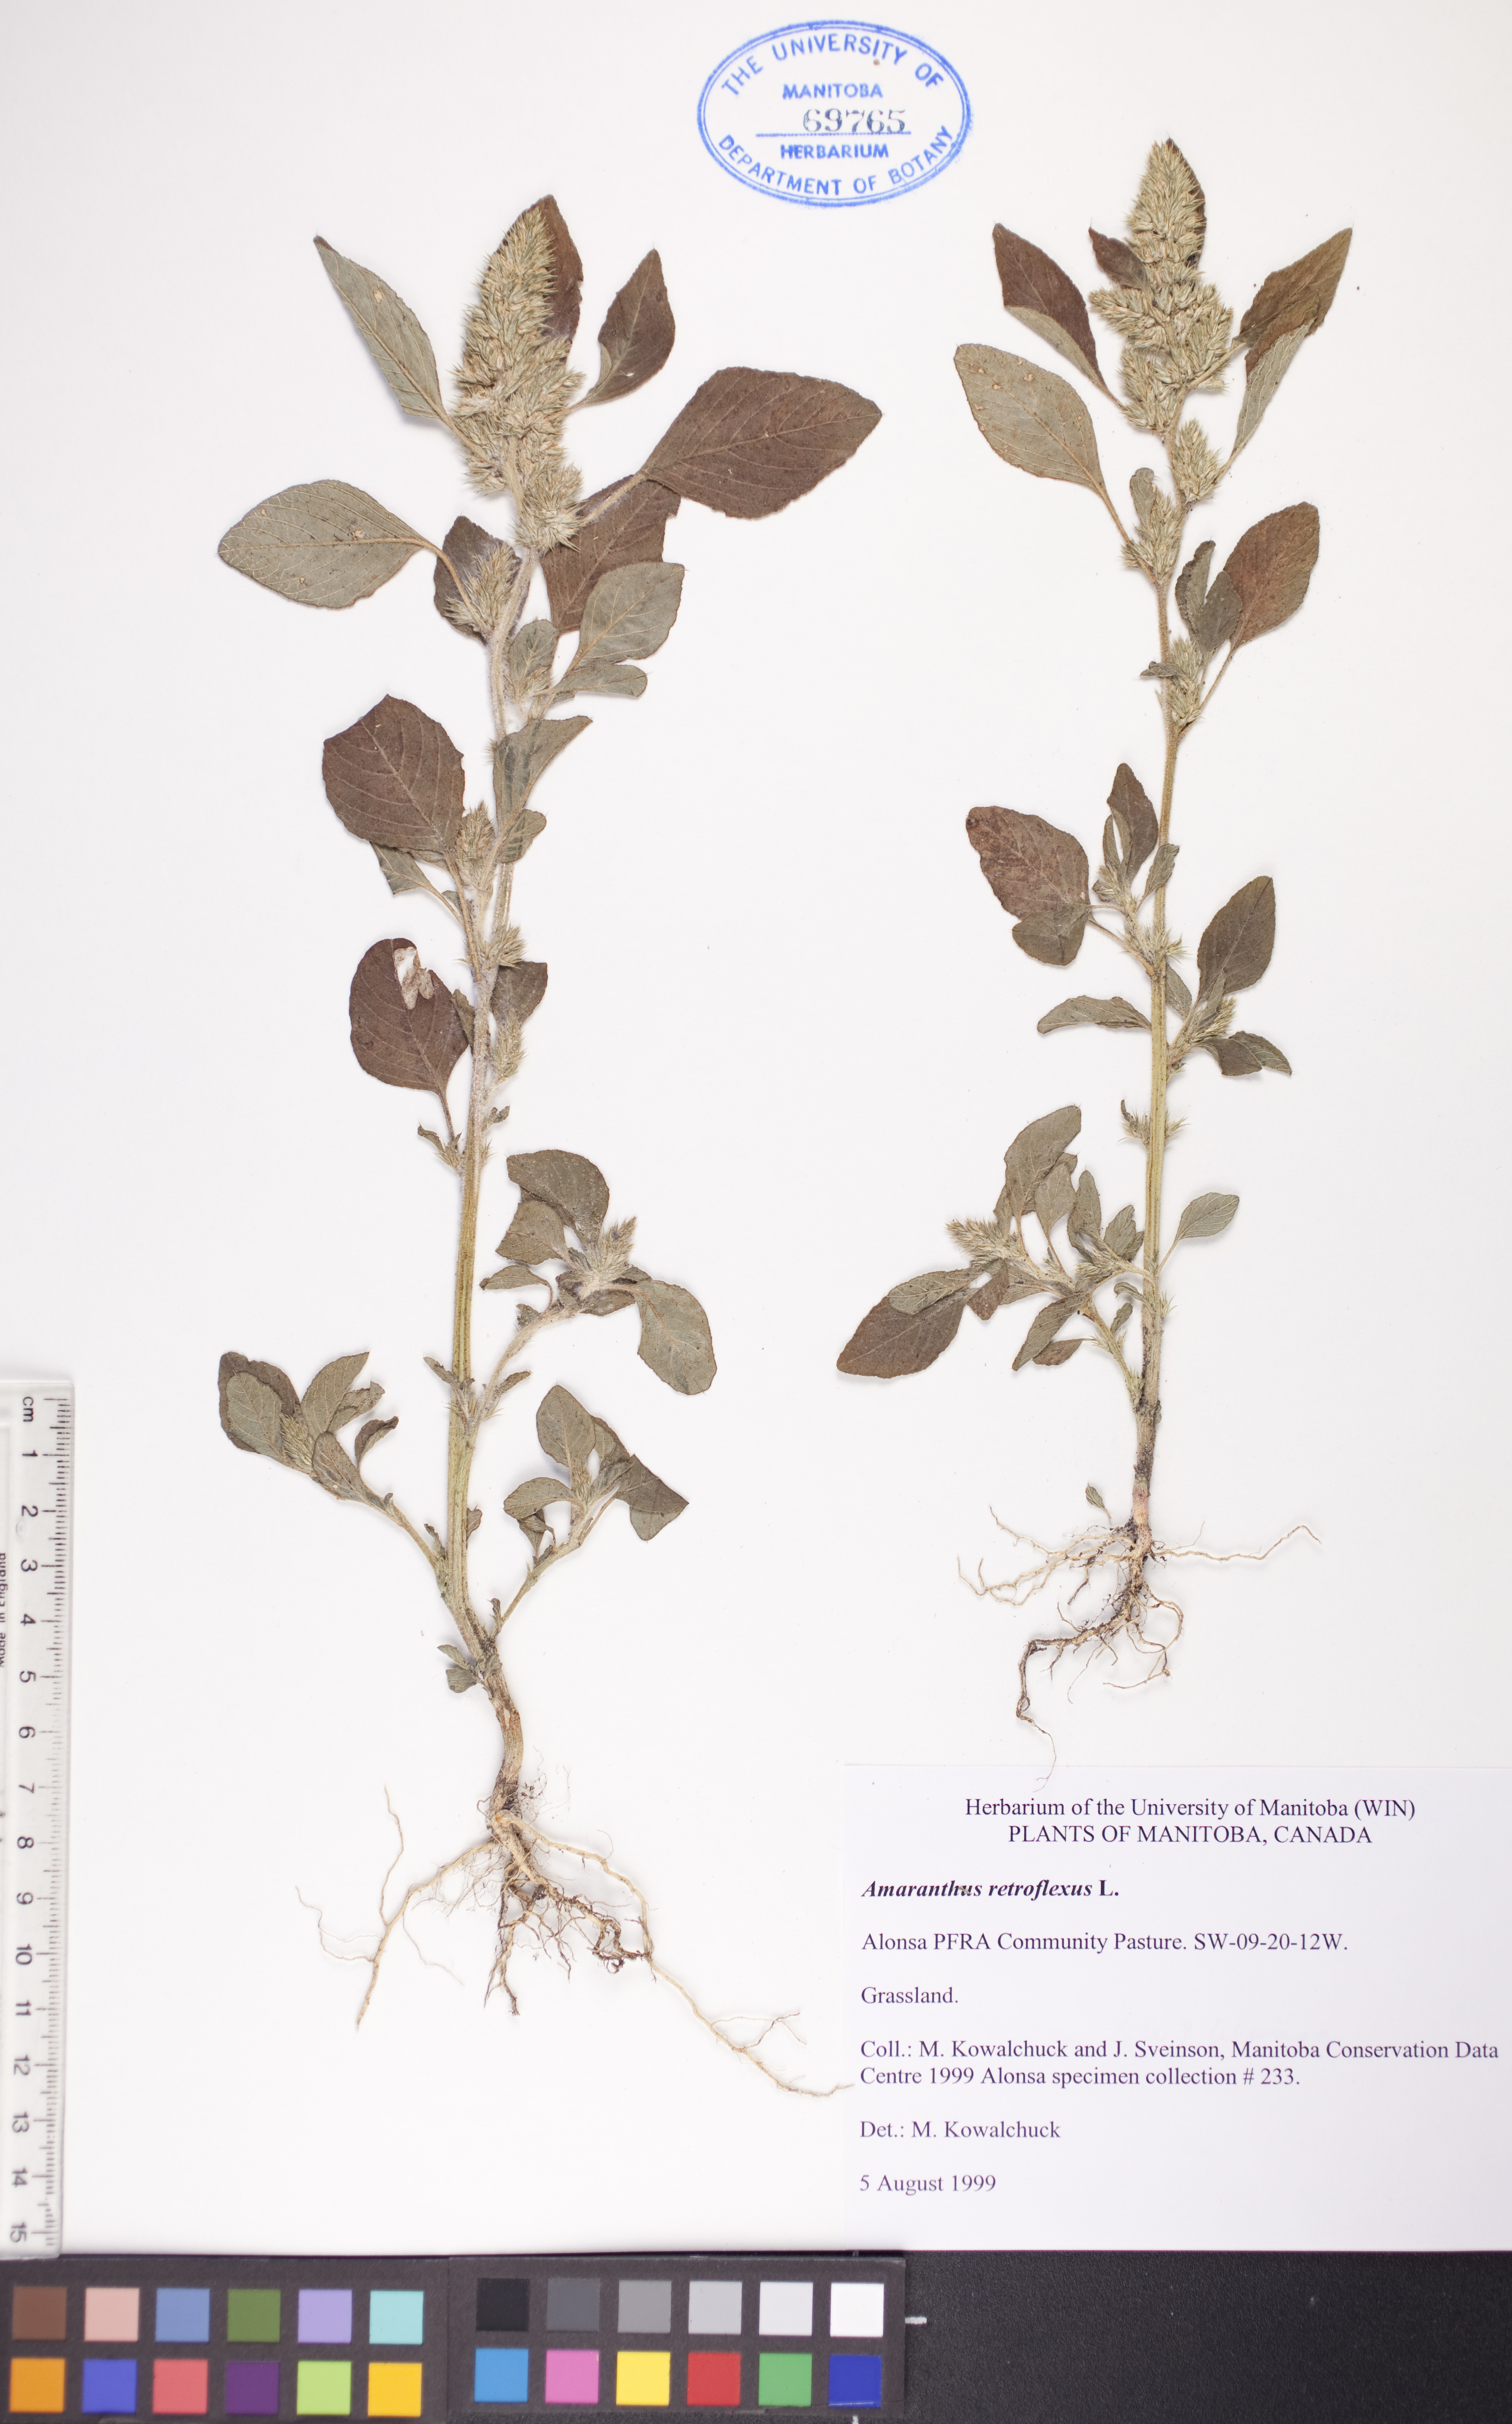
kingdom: Plantae
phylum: Tracheophyta
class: Magnoliopsida
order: Caryophyllales
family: Amaranthaceae
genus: Amaranthus
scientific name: Amaranthus retroflexus
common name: Redroot amaranth
